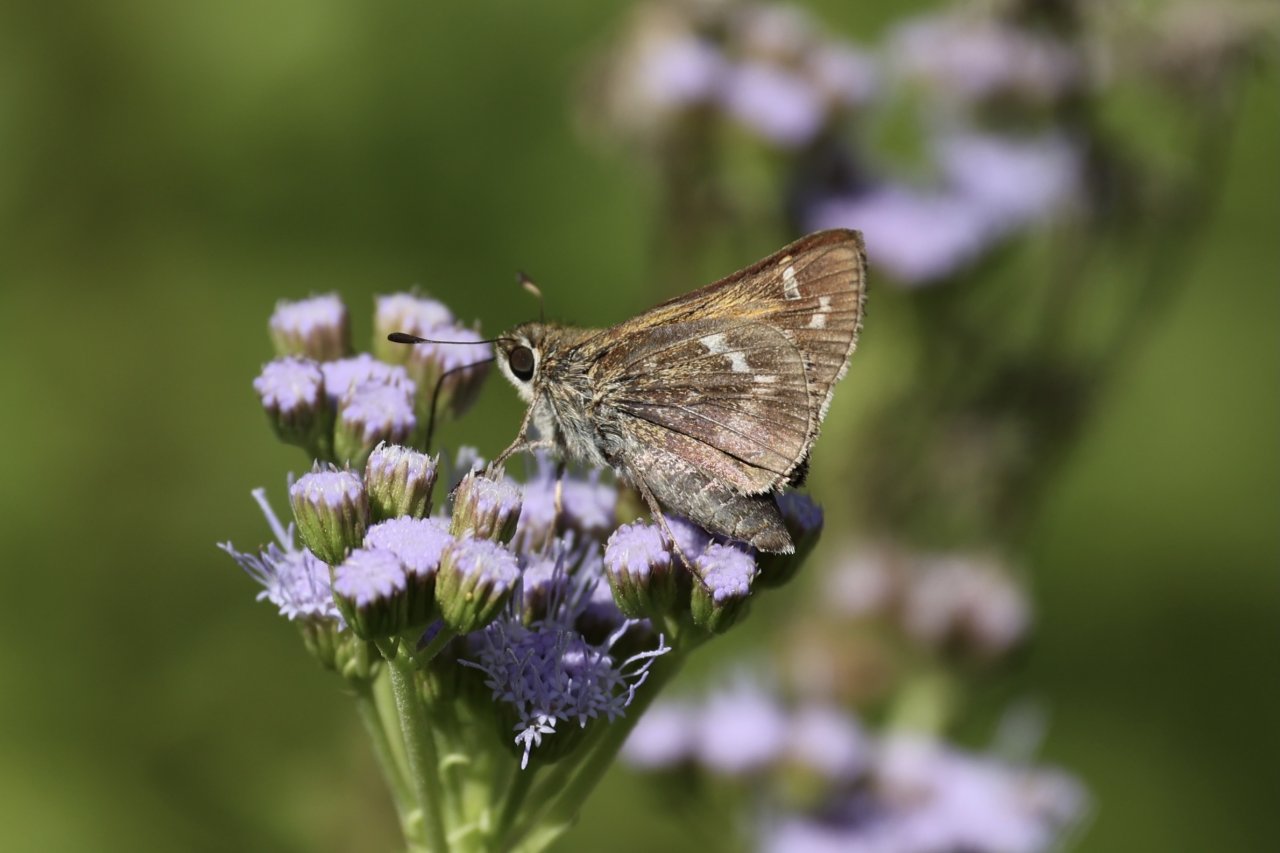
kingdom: Animalia
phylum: Arthropoda
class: Insecta
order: Lepidoptera
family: Hesperiidae
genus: Atalopedes
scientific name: Atalopedes campestris
